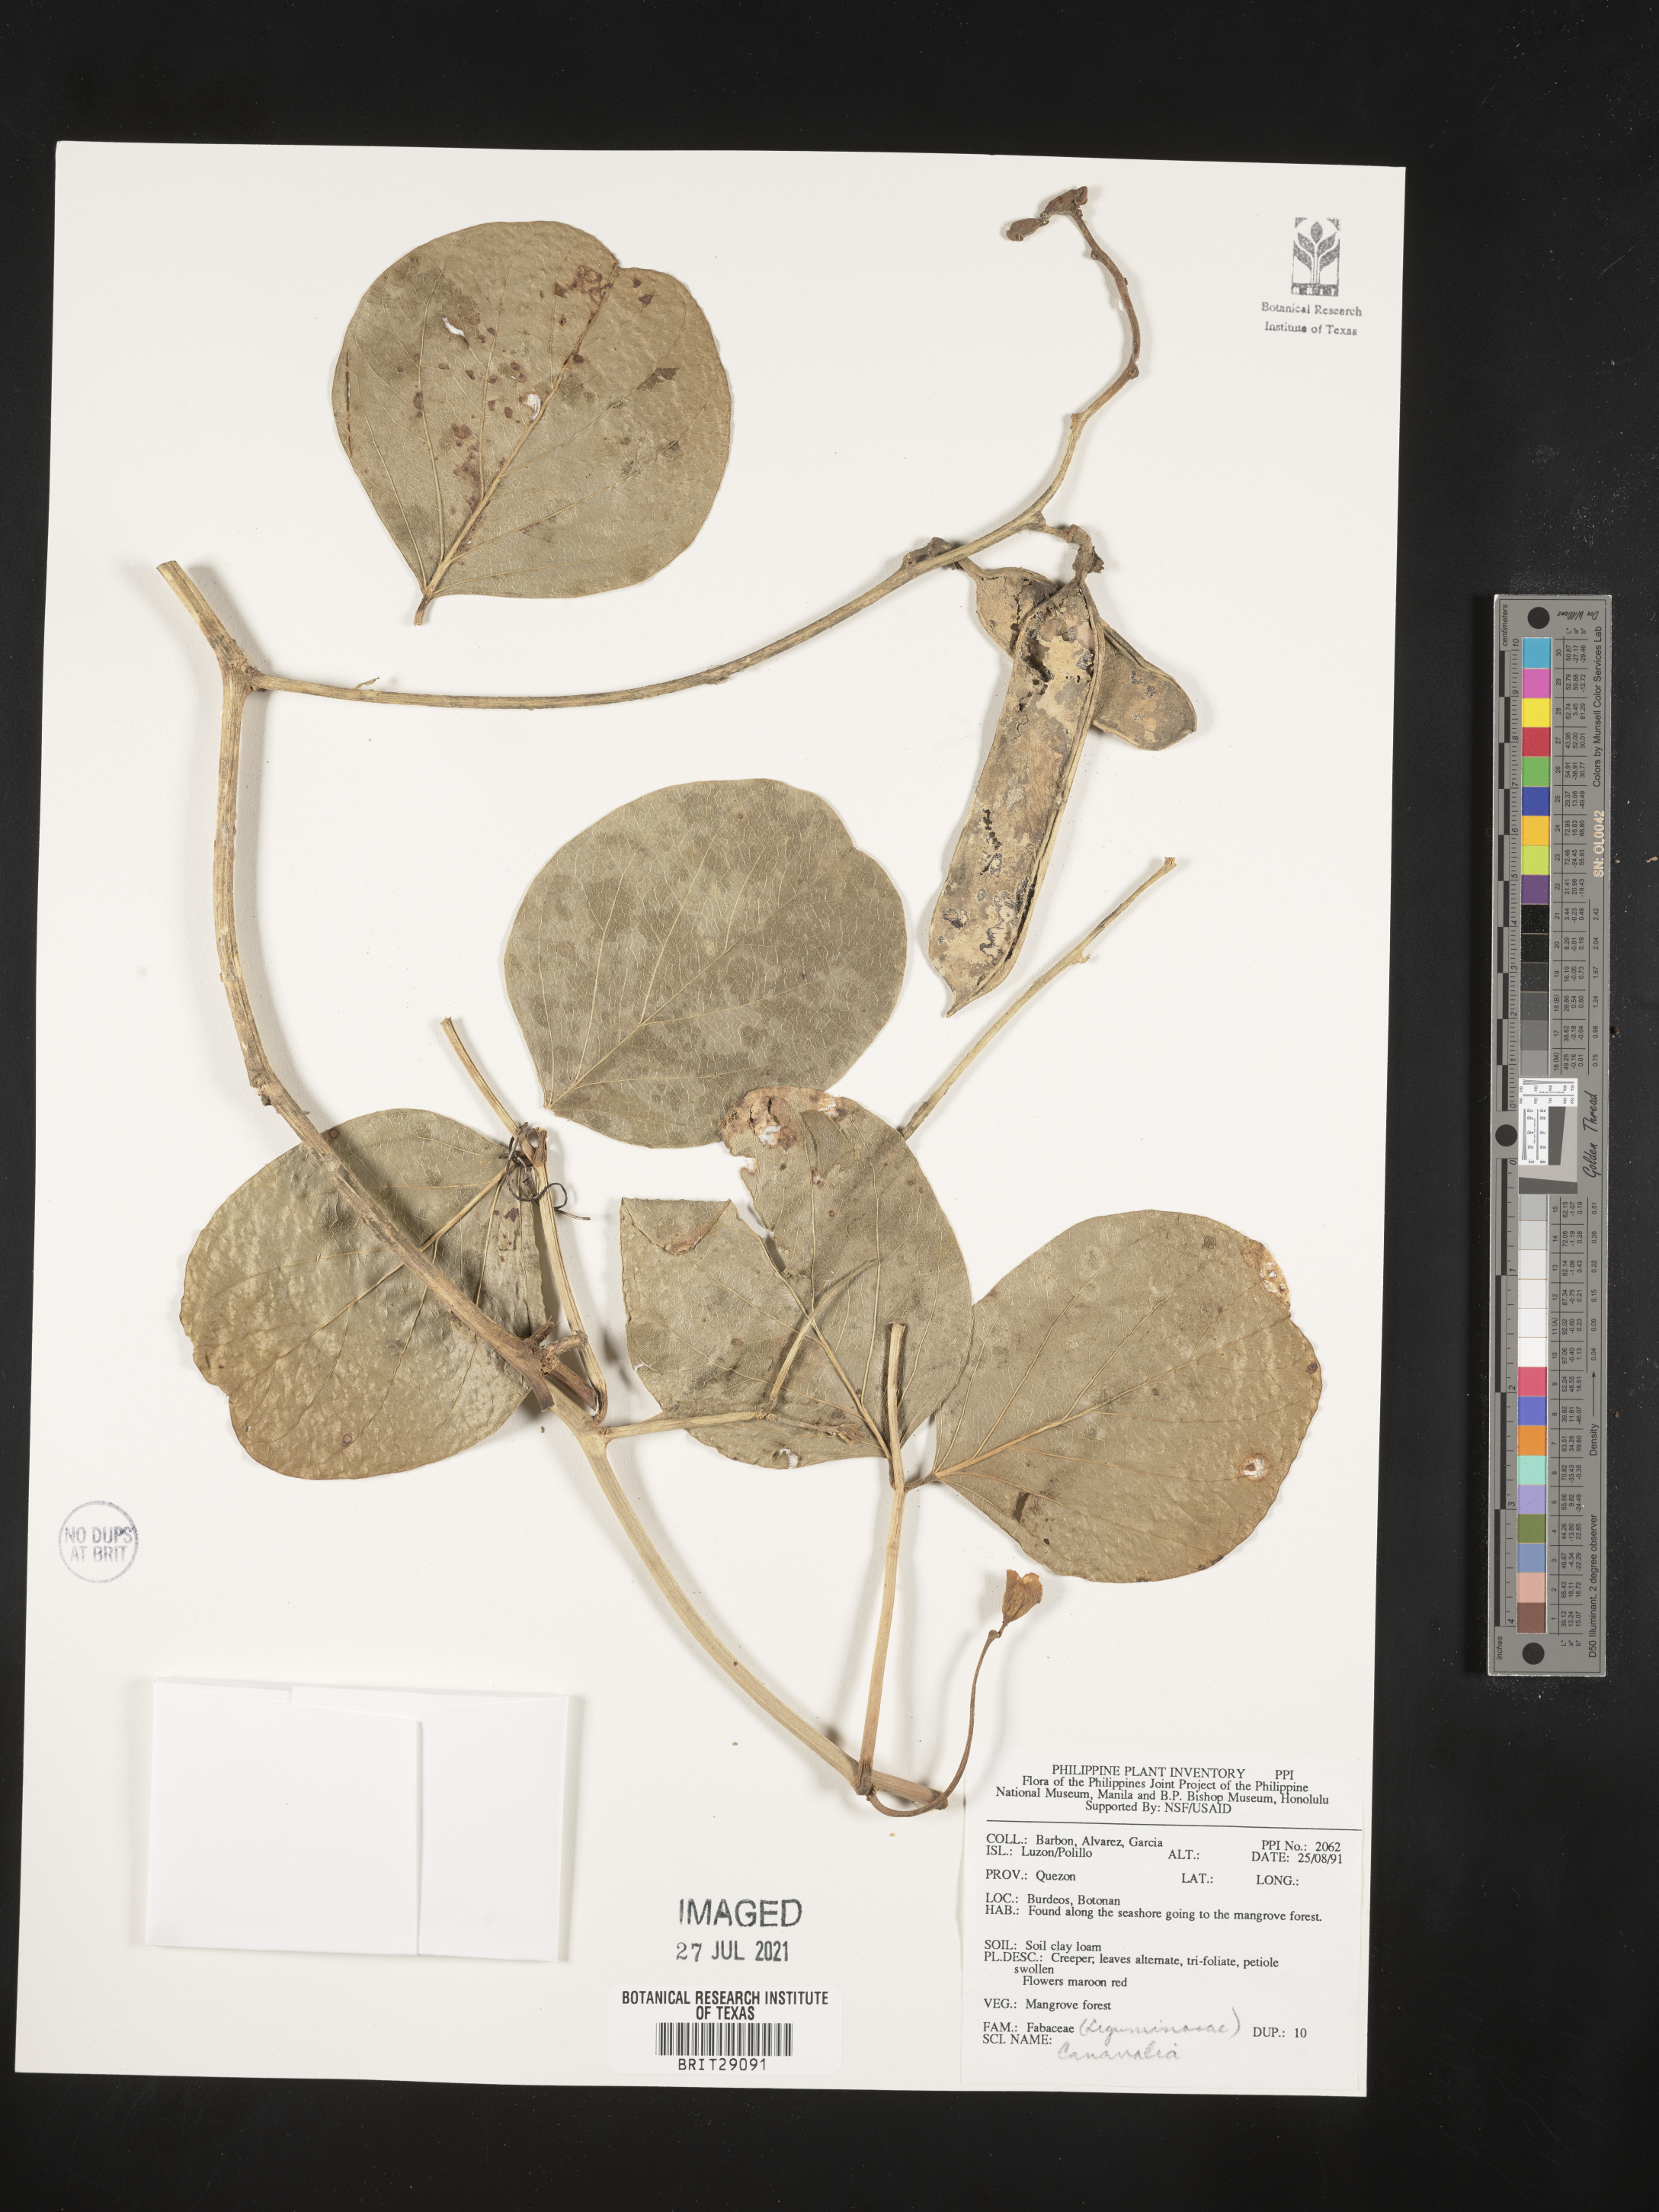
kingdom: Plantae
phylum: Tracheophyta
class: Magnoliopsida
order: Fabales
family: Fabaceae
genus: Canavalia
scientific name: Canavalia
